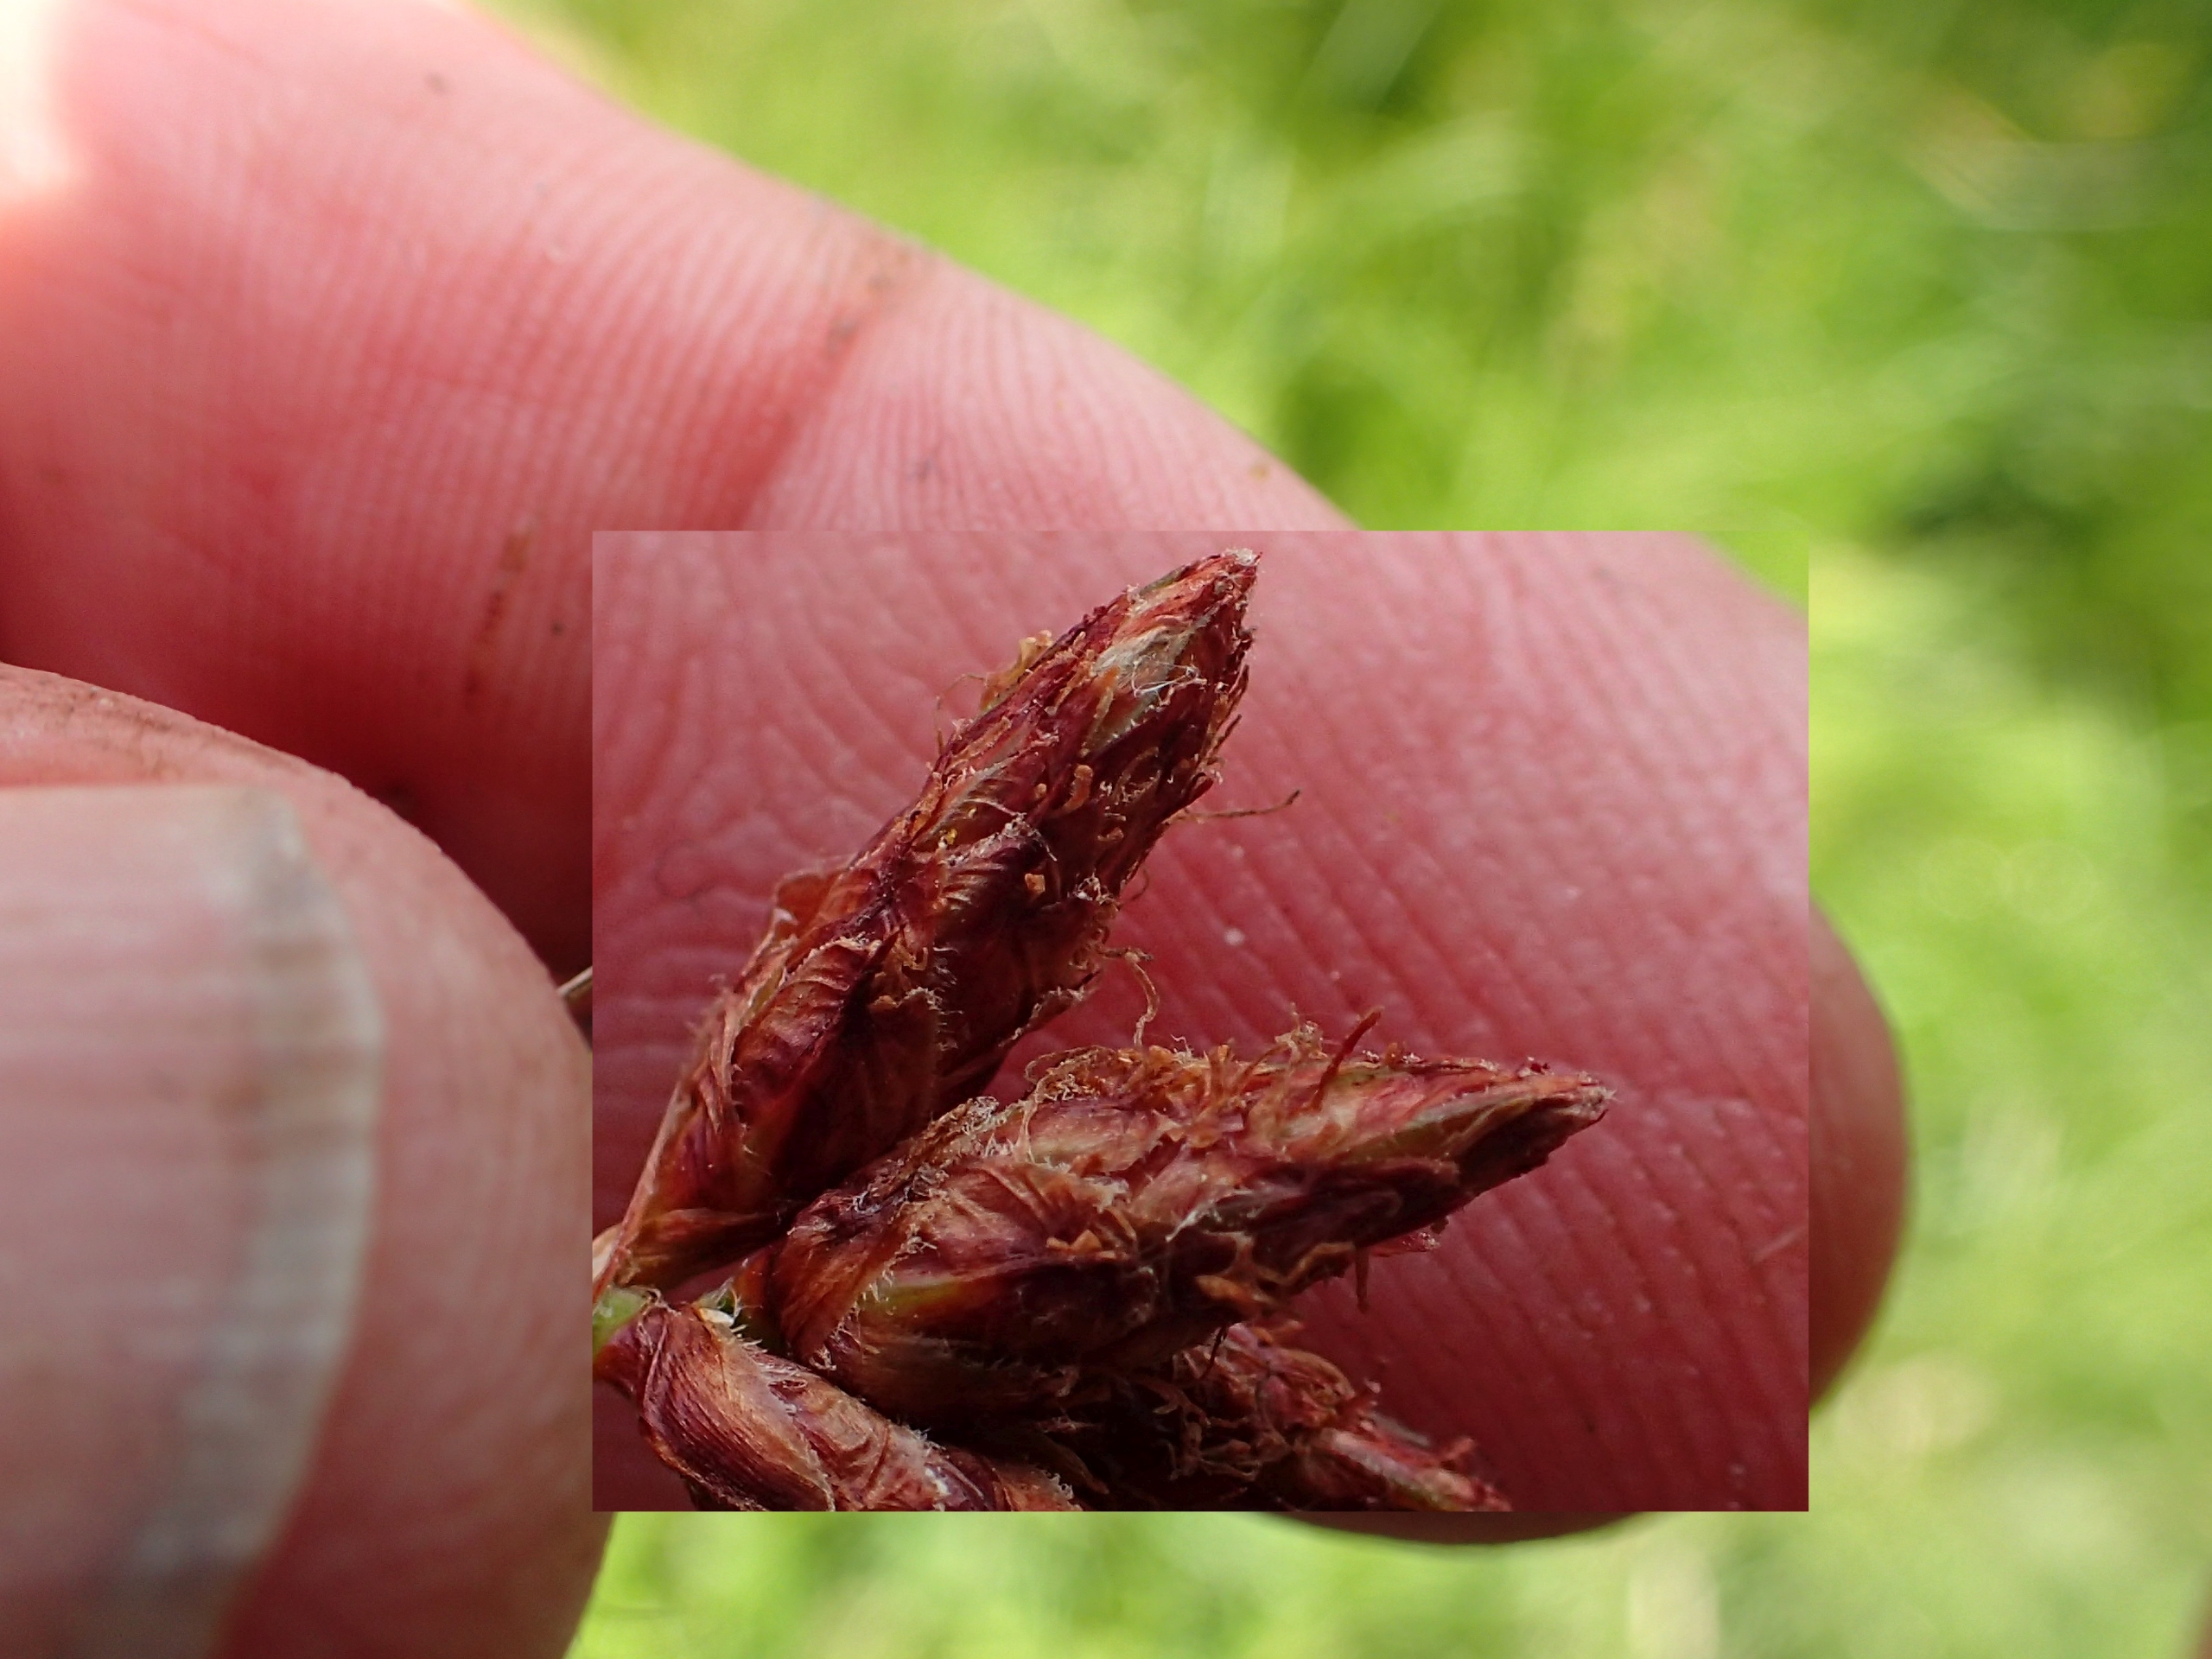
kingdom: Plantae
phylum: Tracheophyta
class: Liliopsida
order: Poales
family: Cyperaceae
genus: Schoenoplectus
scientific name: Schoenoplectus lacustris
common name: Sø-kogleaks
